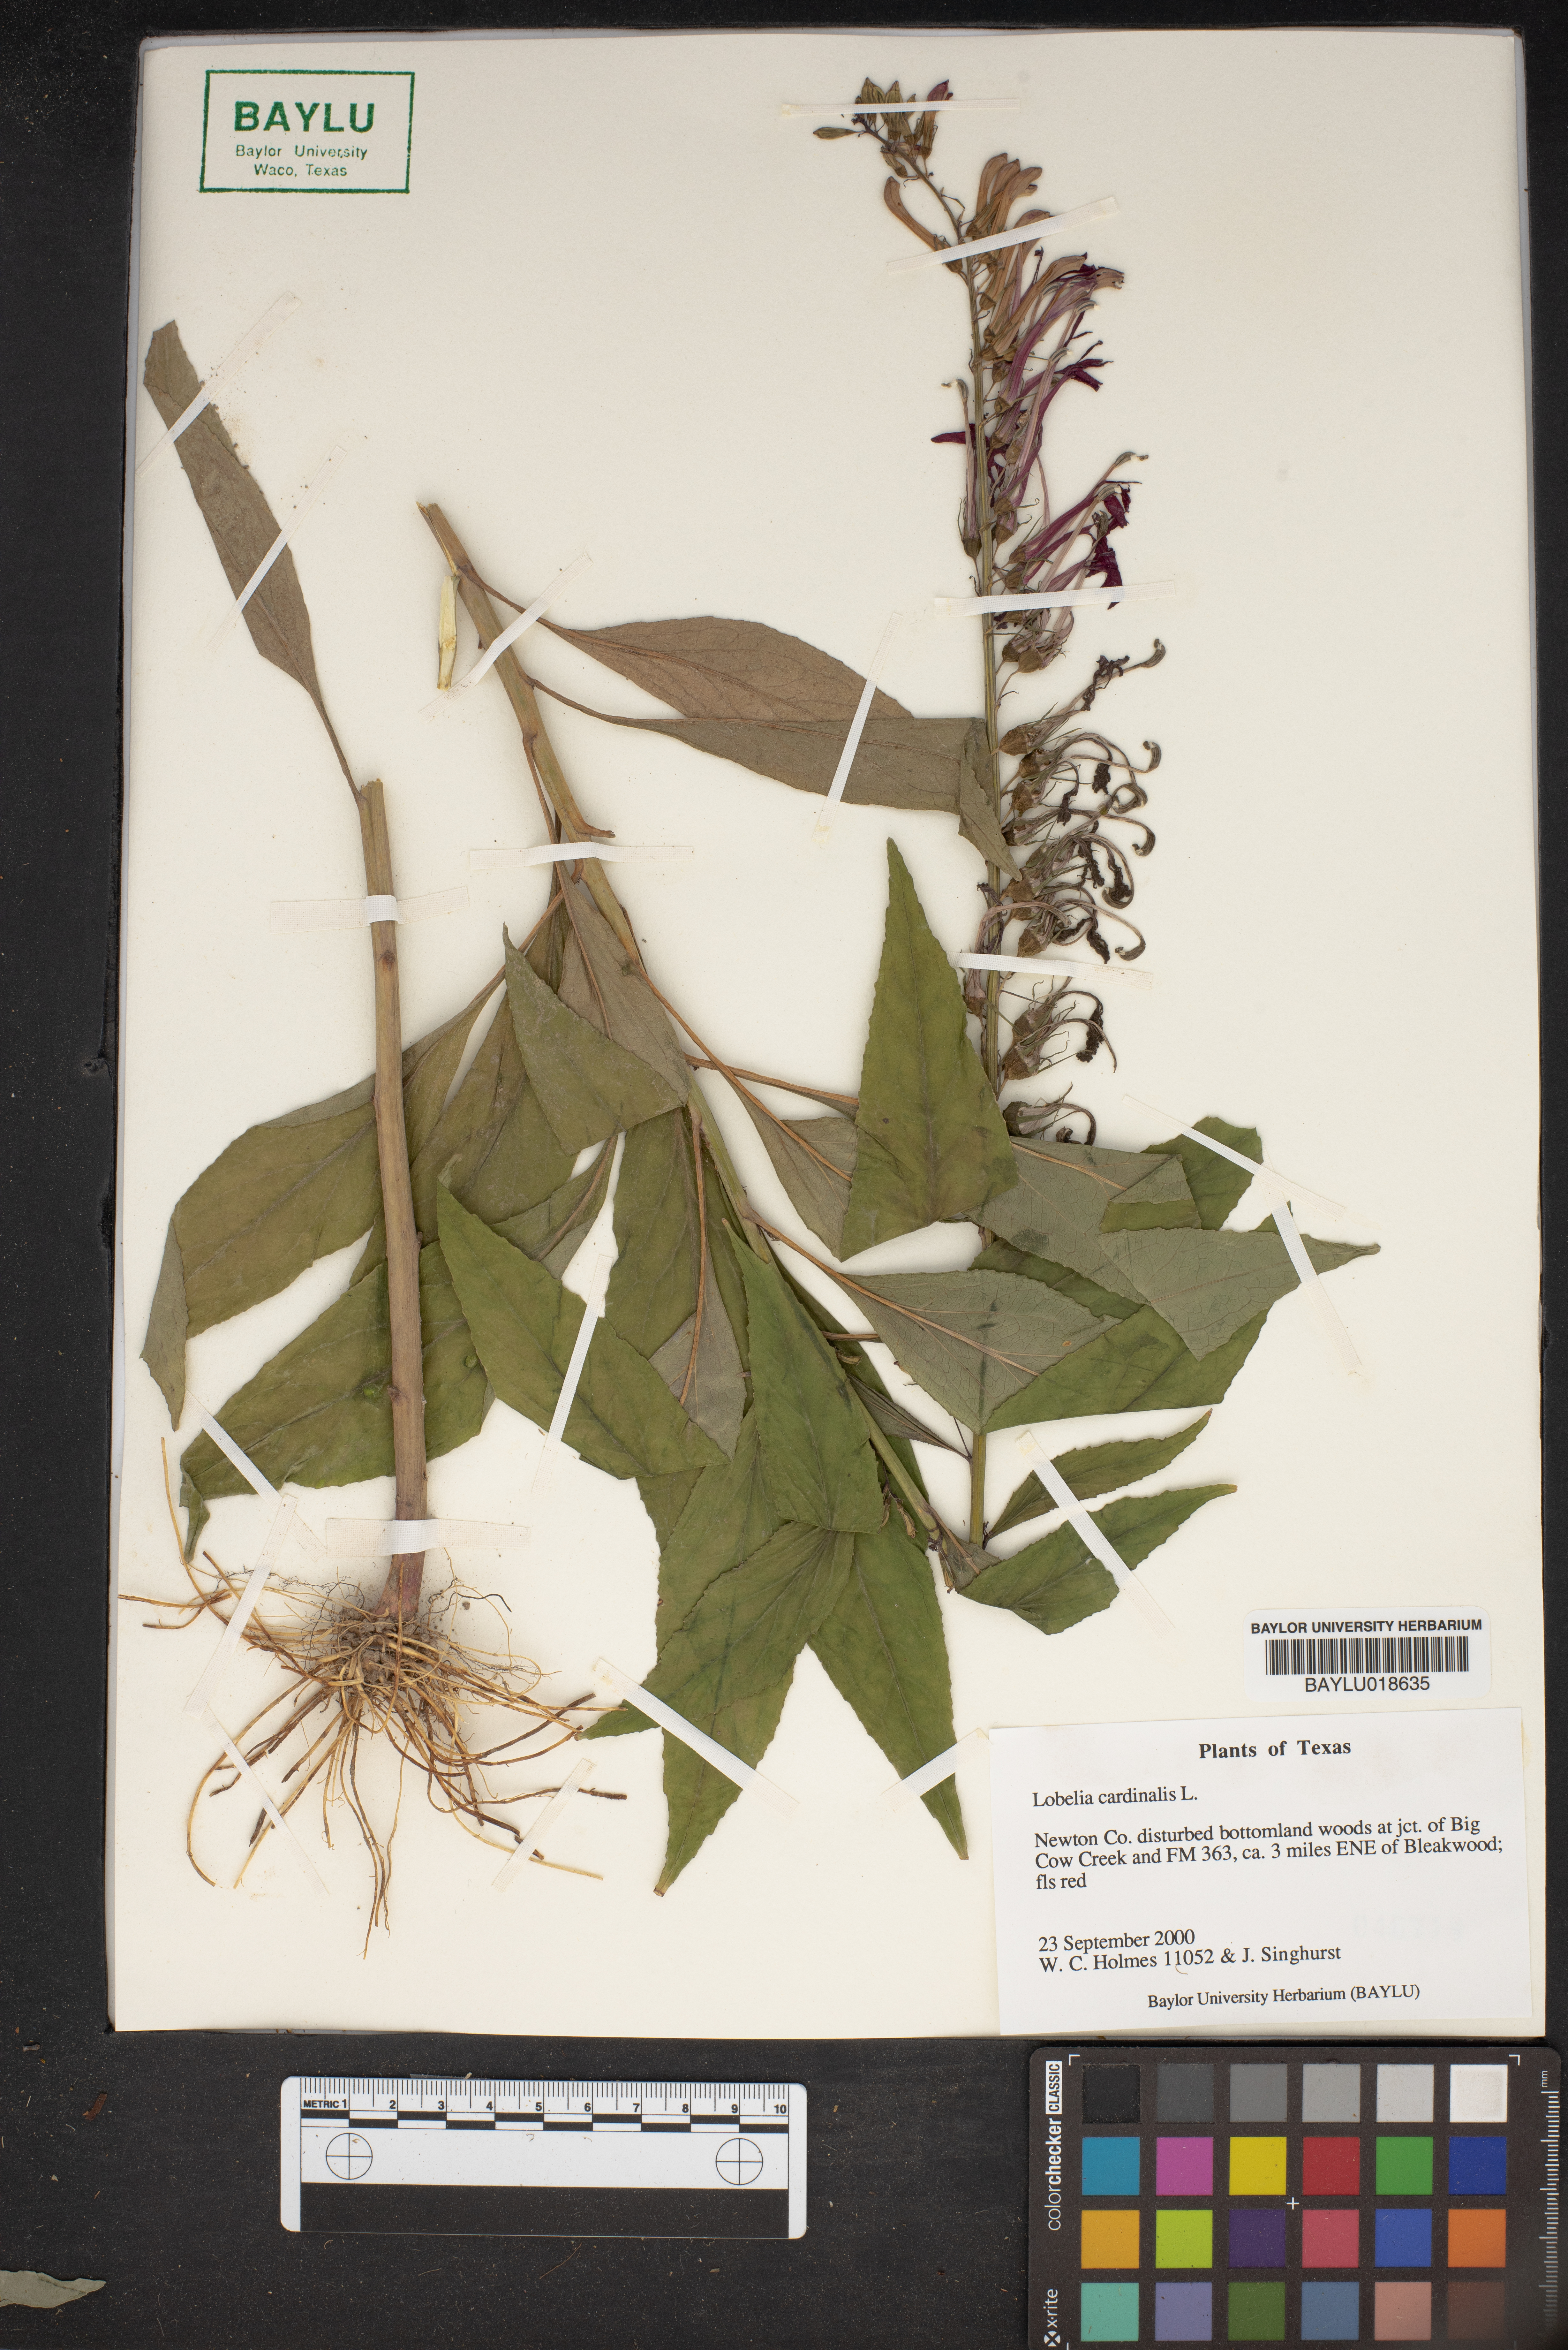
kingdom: Plantae
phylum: Tracheophyta
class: Magnoliopsida
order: Asterales
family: Campanulaceae
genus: Lobelia
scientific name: Lobelia cardinalis
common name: Cardinal flower
